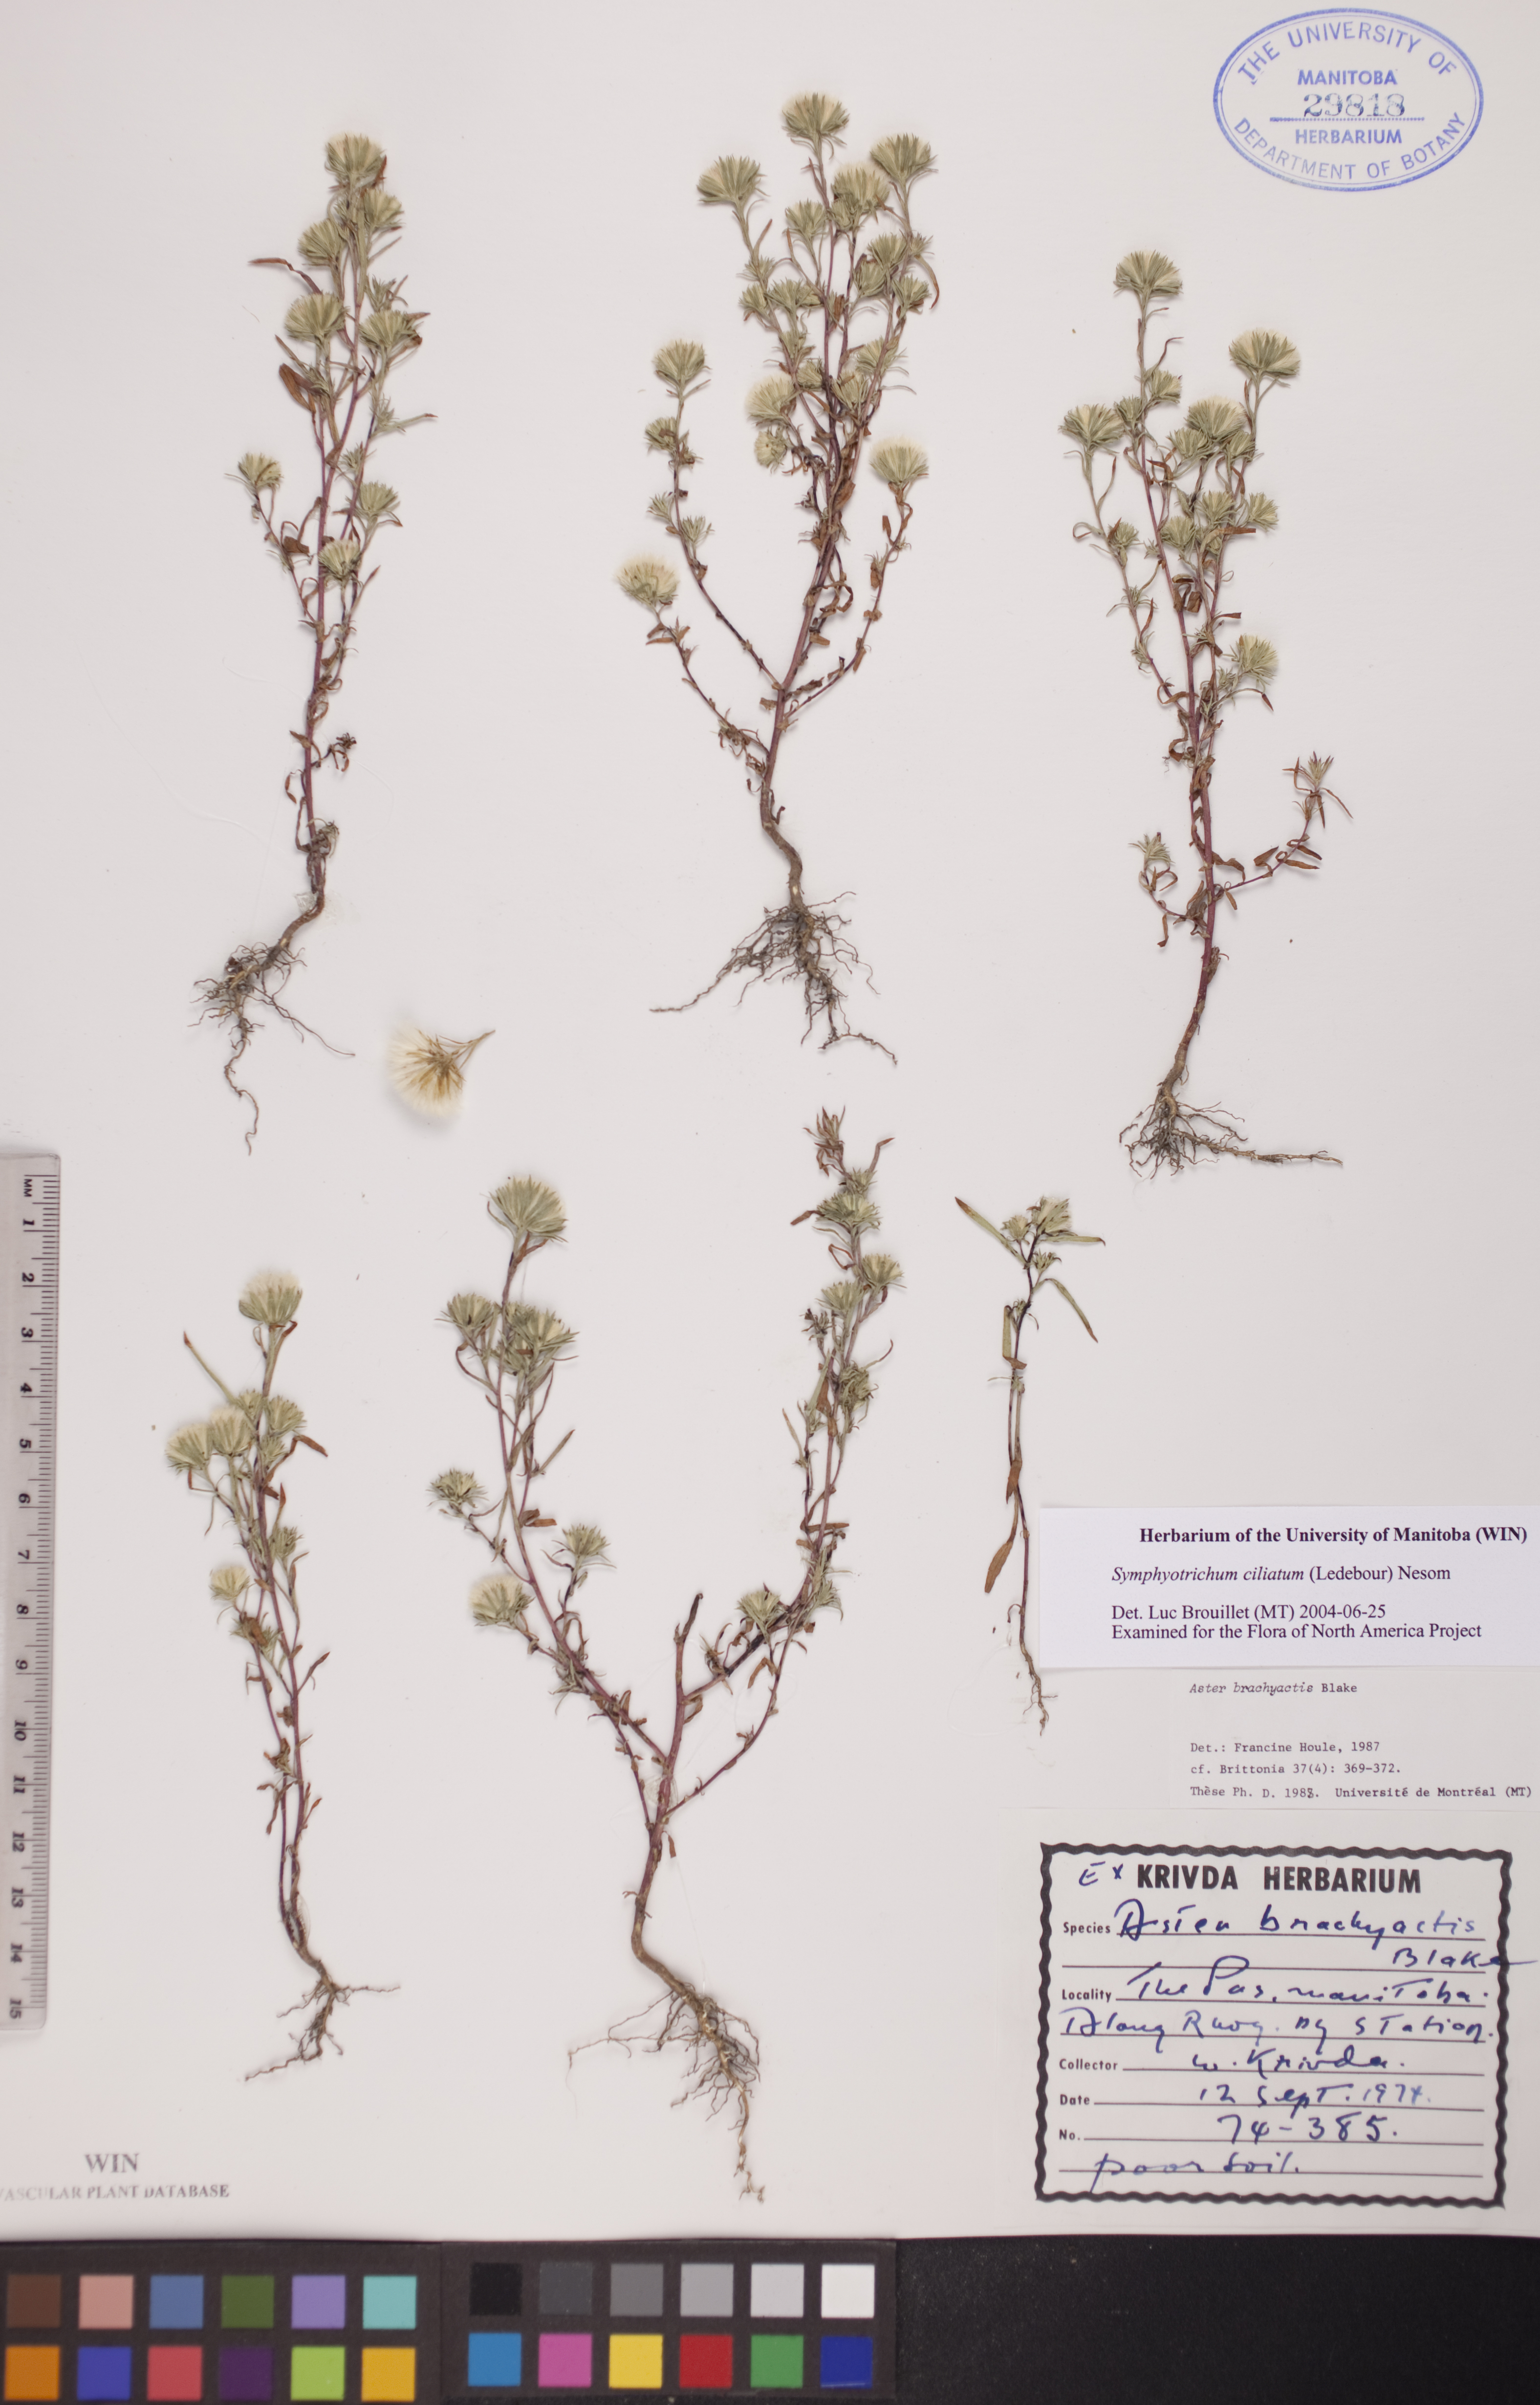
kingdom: Plantae
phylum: Tracheophyta
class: Magnoliopsida
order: Asterales
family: Asteraceae
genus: Symphyotrichum
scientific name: Symphyotrichum ciliatum
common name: Rayless annual aster
